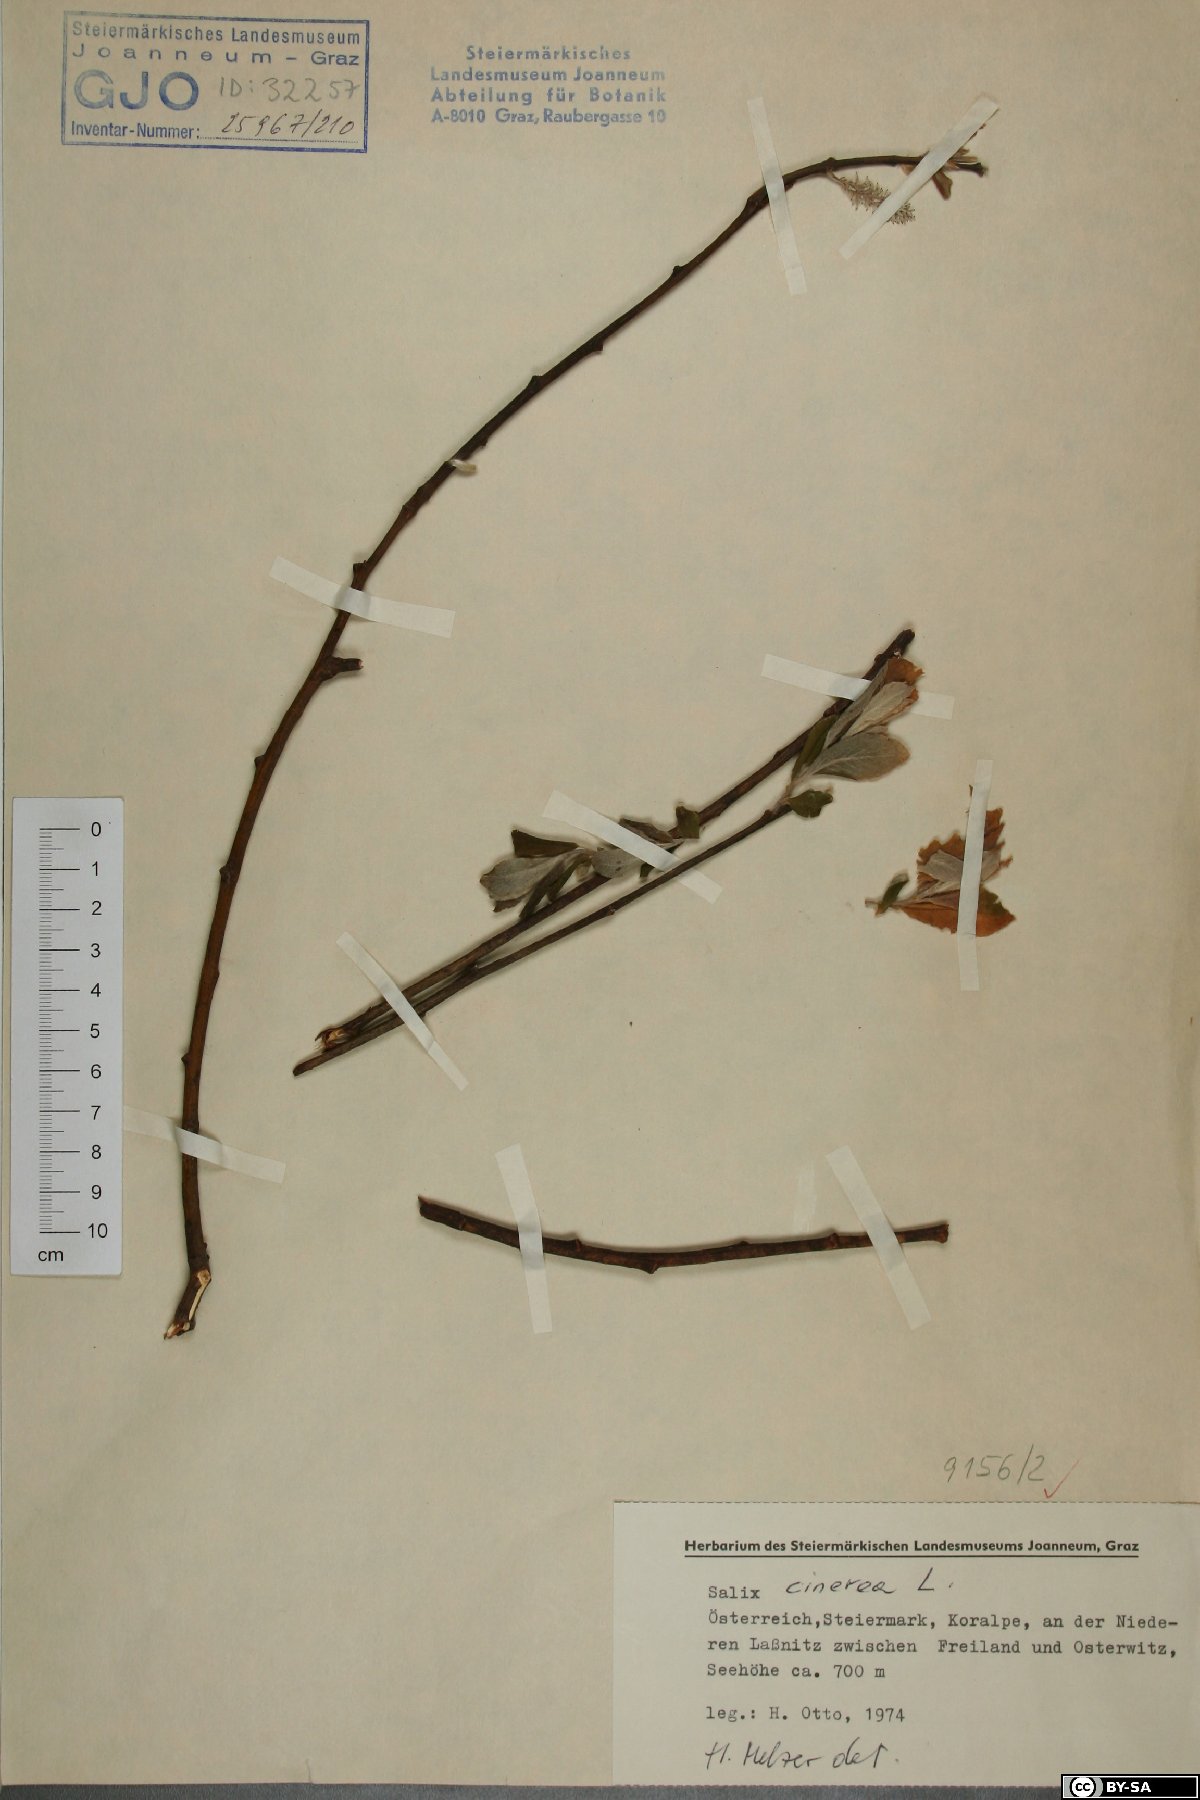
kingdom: Plantae
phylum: Tracheophyta
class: Magnoliopsida
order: Malpighiales
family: Salicaceae
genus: Salix
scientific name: Salix cinerea
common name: Common sallow
